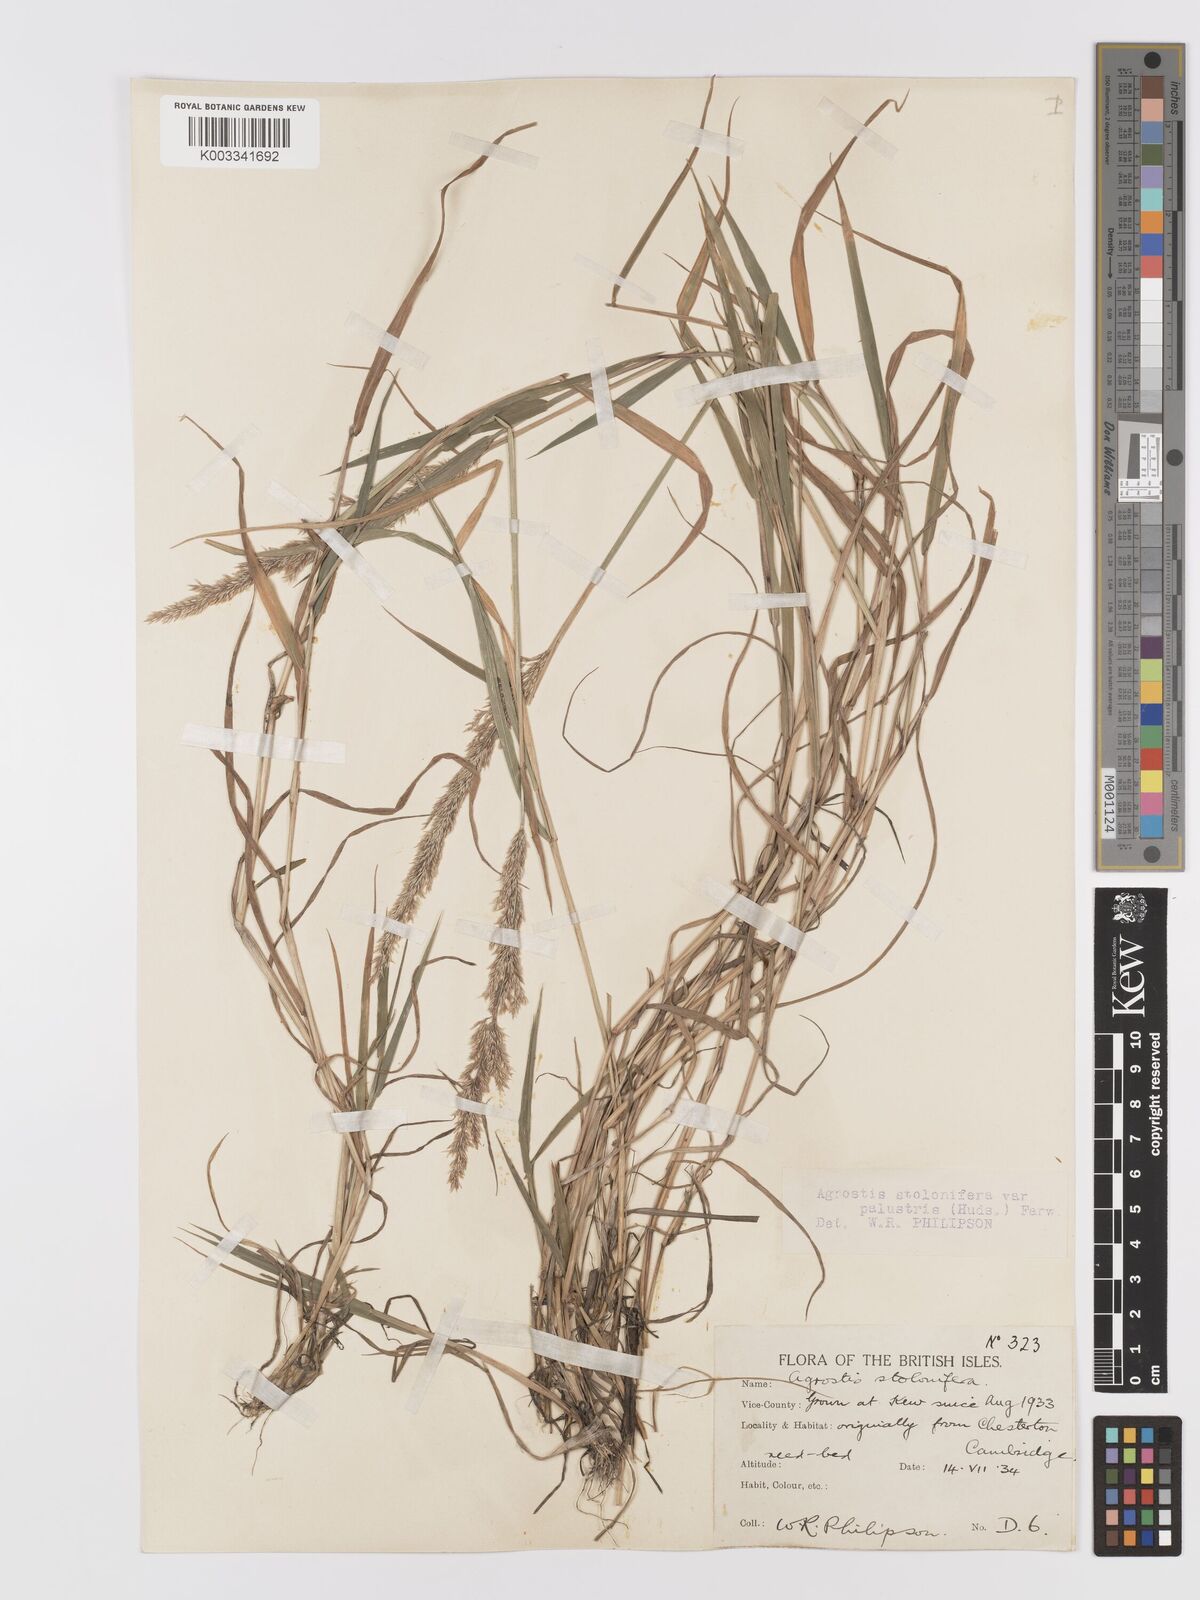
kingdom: Plantae
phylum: Tracheophyta
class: Liliopsida
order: Poales
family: Poaceae
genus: Agrostis
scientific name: Agrostis stolonifera
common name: Creeping bentgrass
